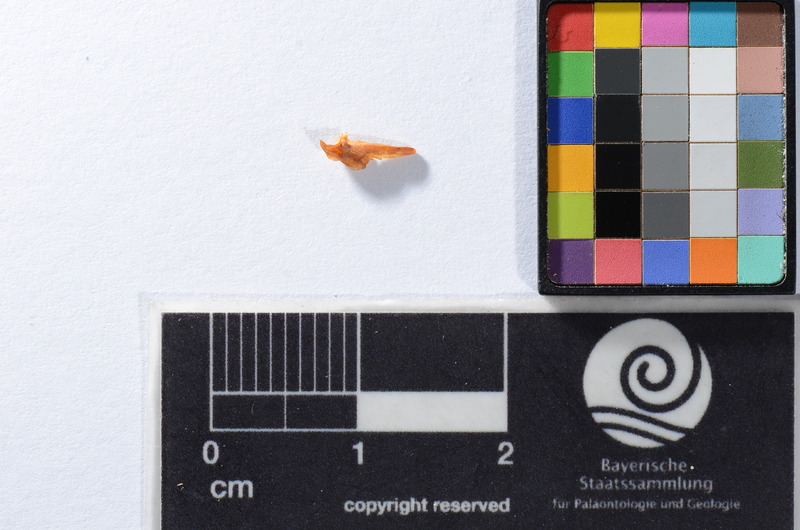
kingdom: Animalia
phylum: Chordata
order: Scorpaeniformes
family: Cottidae
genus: Cottus
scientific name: Cottus gobio
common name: Bullhead
